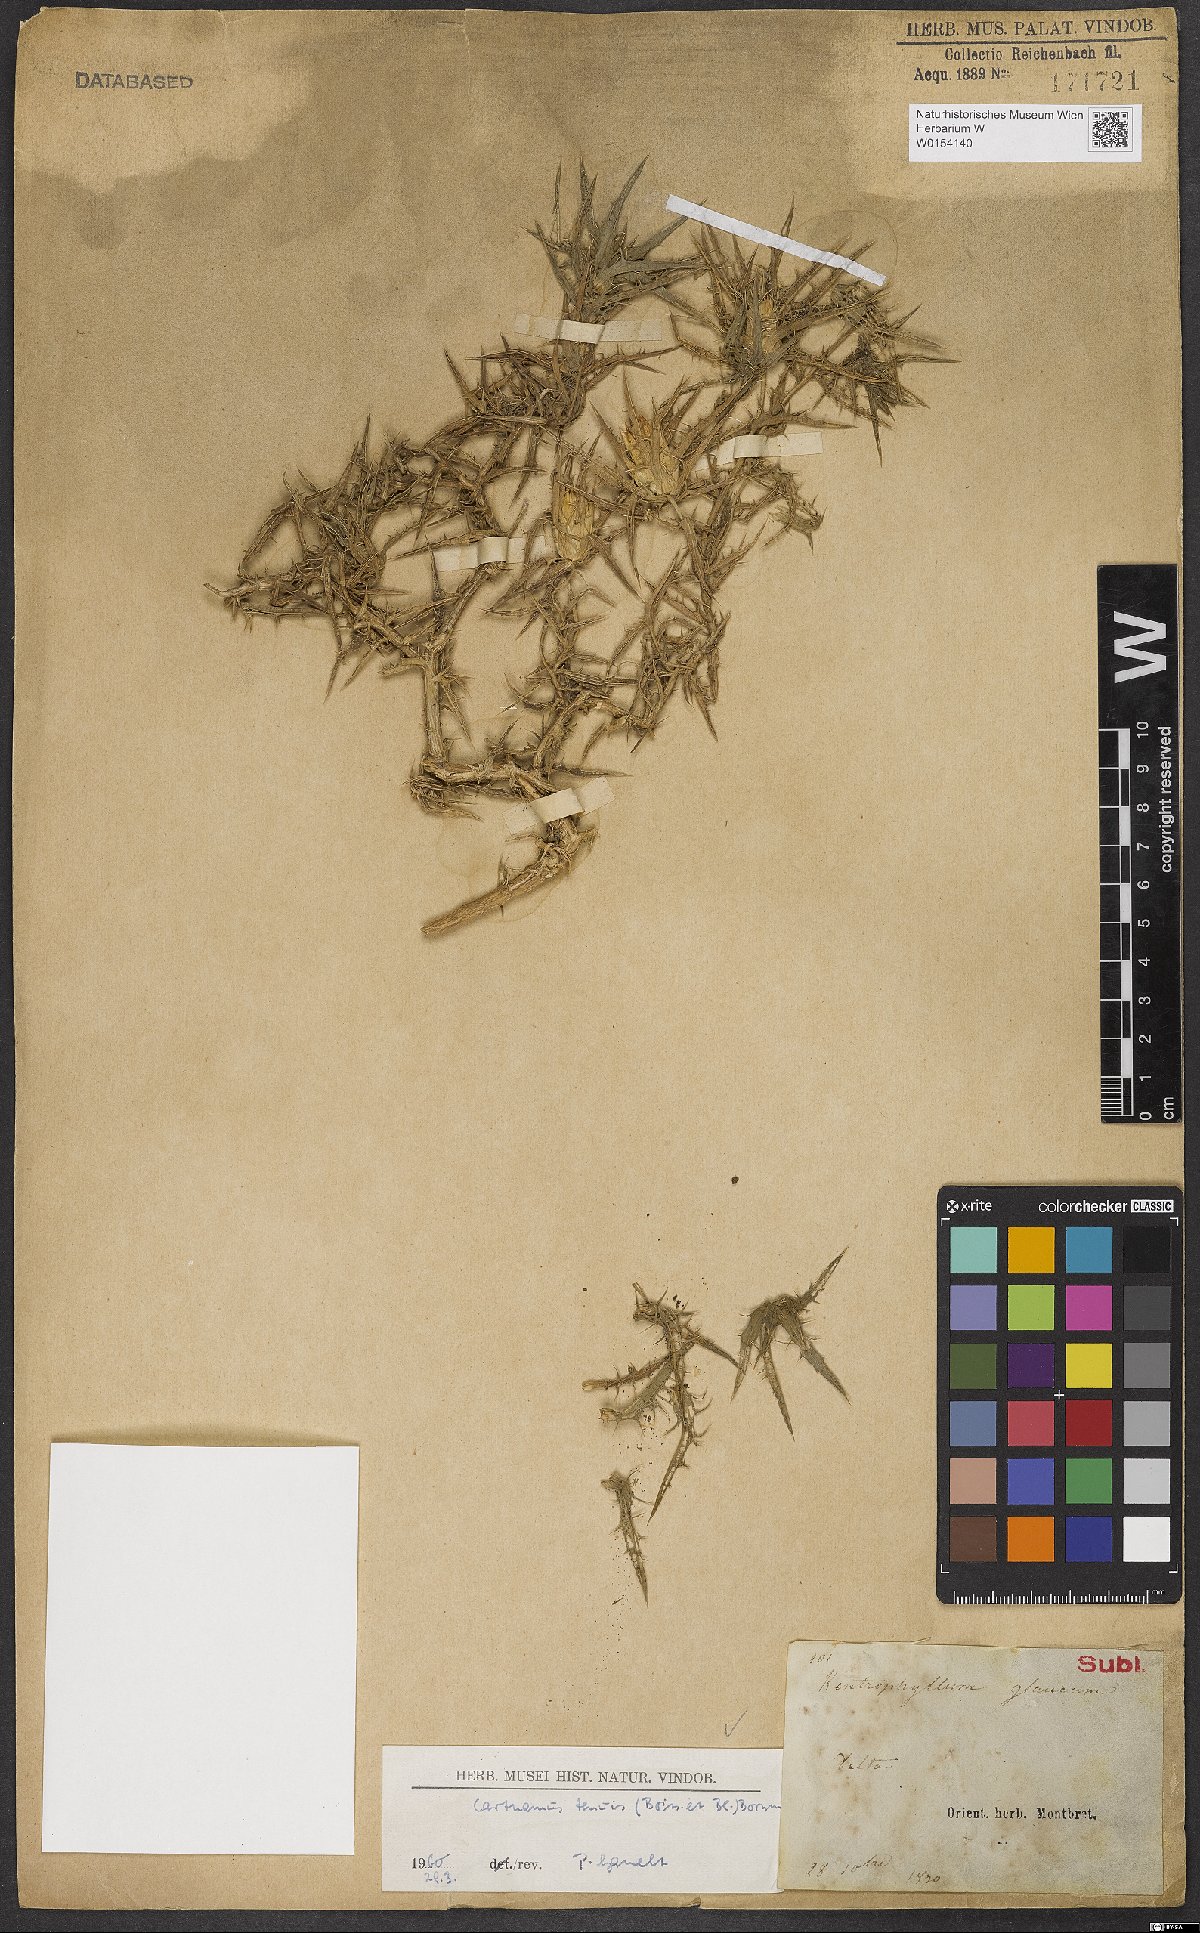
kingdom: Plantae
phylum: Tracheophyta
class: Magnoliopsida
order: Asterales
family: Asteraceae
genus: Carthamus
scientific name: Carthamus tenuis
